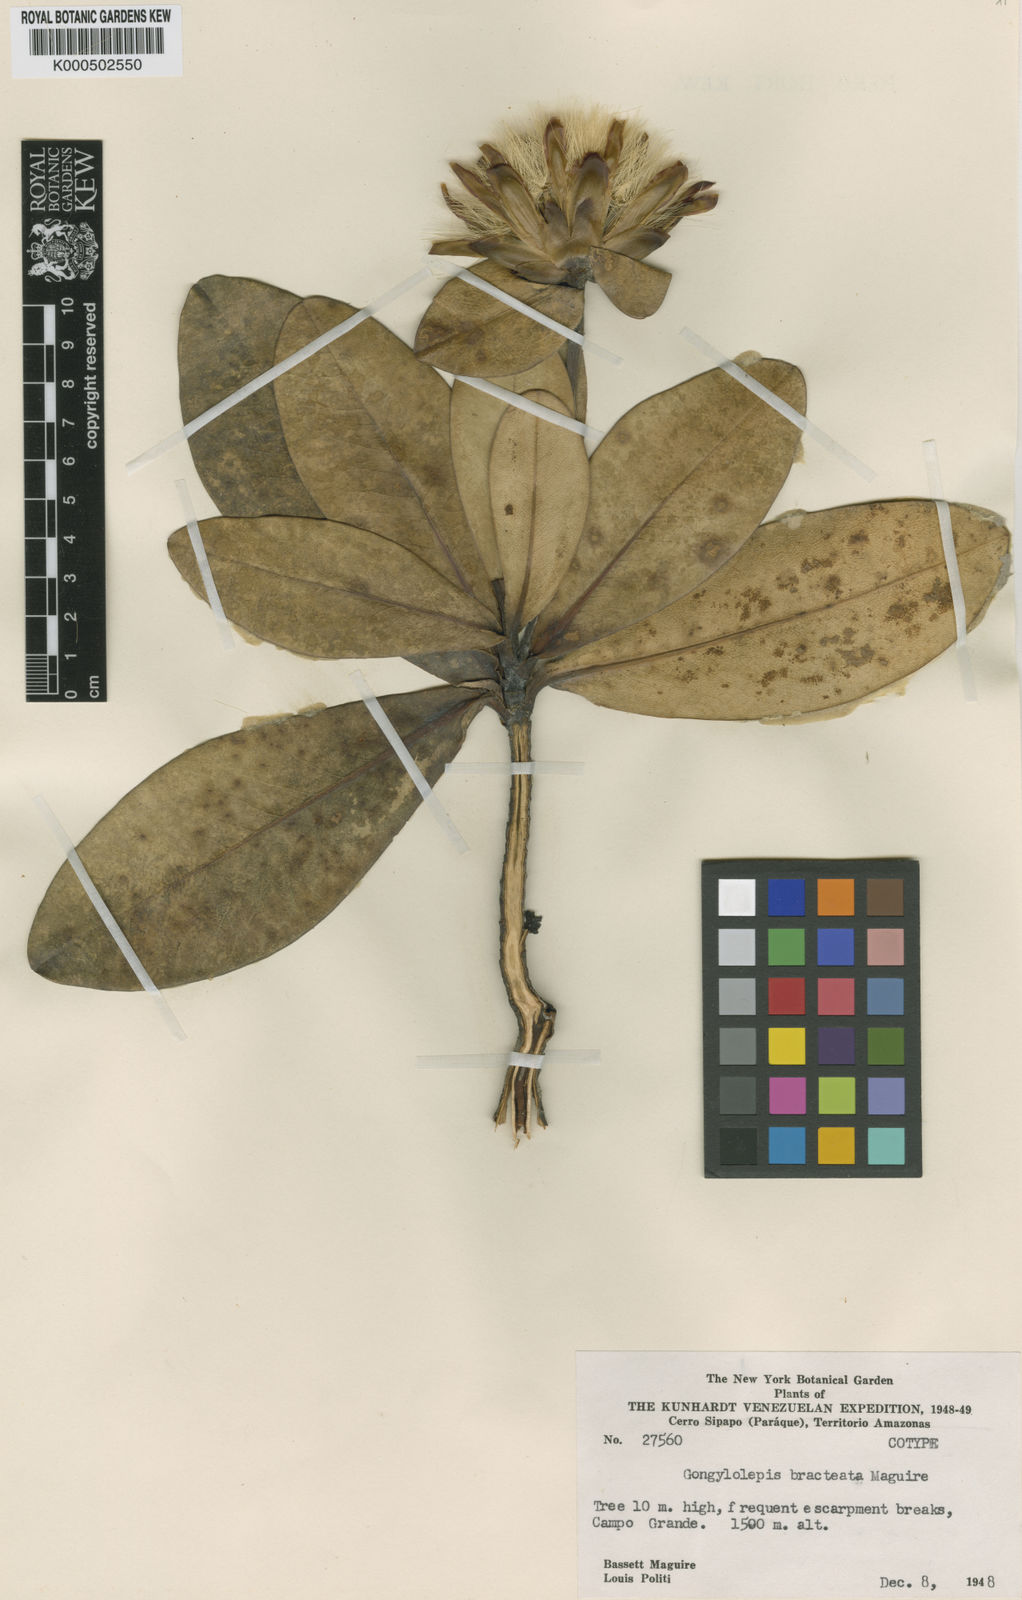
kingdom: Plantae
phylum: Tracheophyta
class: Magnoliopsida
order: Asterales
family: Asteraceae
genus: Gongylolepis
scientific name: Gongylolepis bracteata
